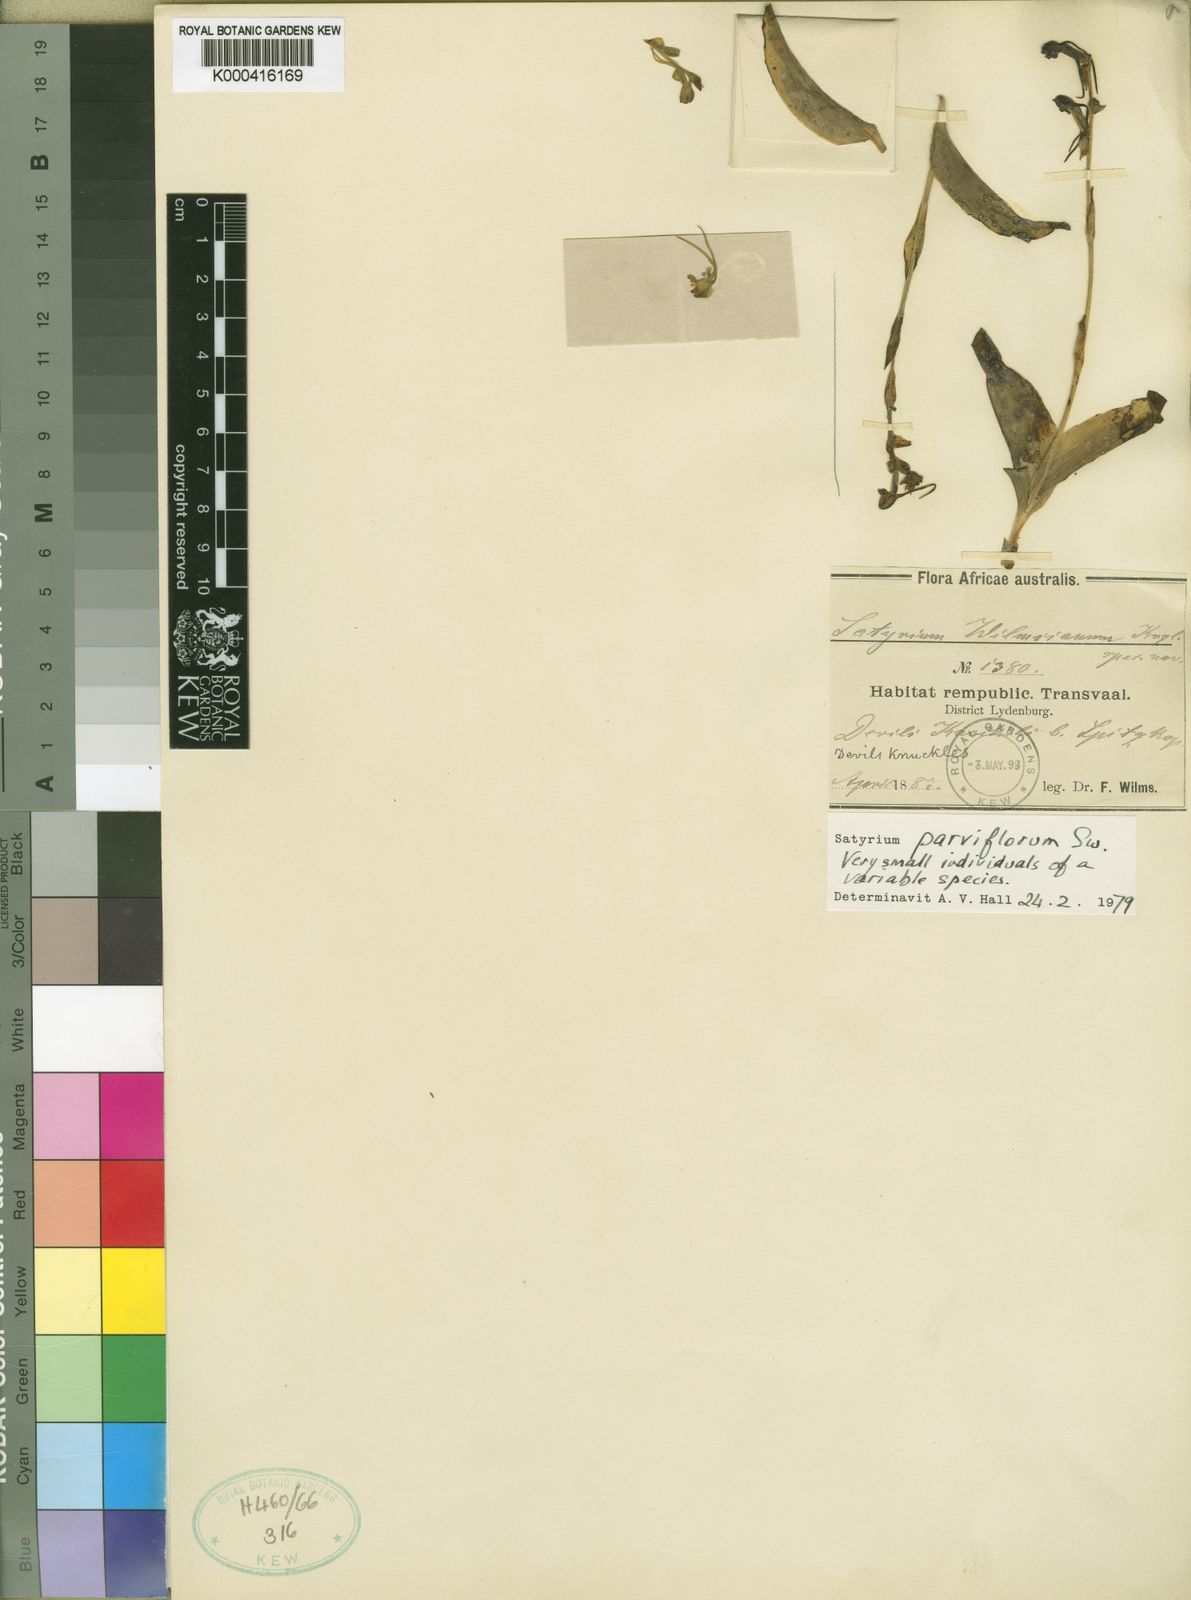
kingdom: Plantae
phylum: Tracheophyta
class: Liliopsida
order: Asparagales
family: Orchidaceae
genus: Satyrium
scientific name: Satyrium parviflorum
